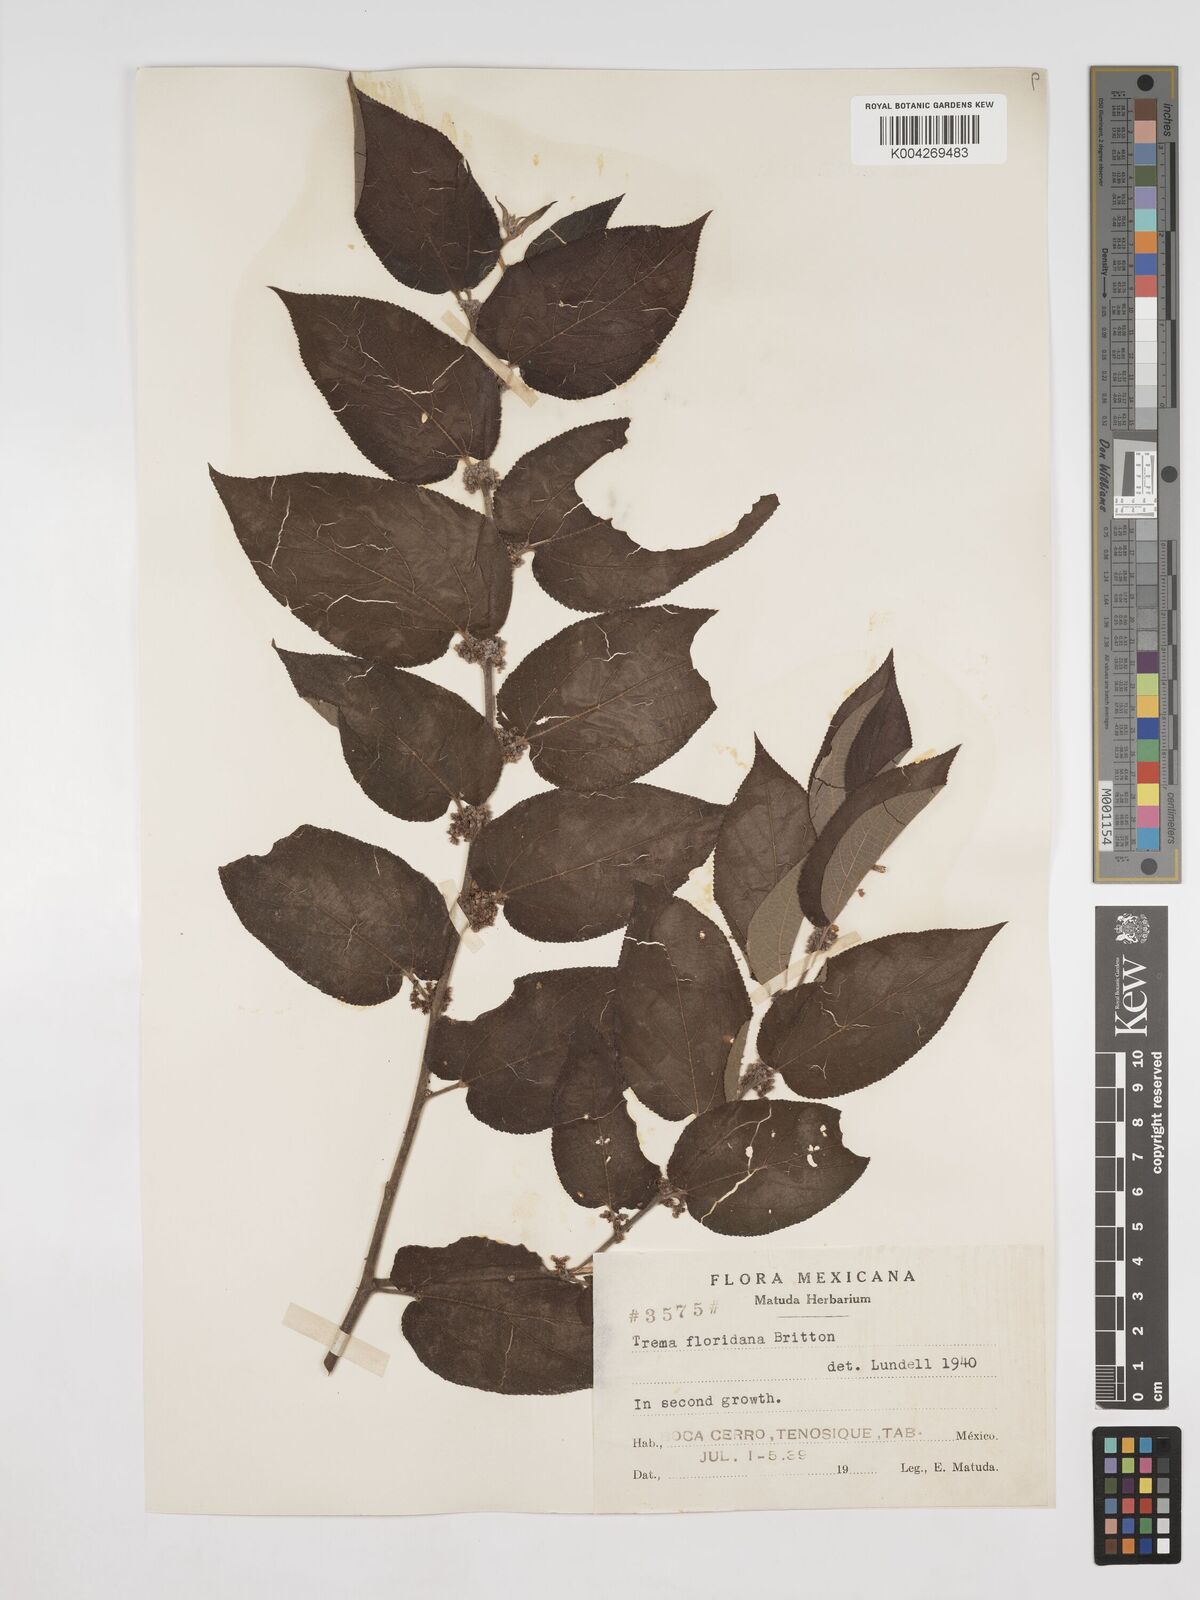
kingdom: Plantae
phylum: Tracheophyta
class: Magnoliopsida
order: Rosales
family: Cannabaceae
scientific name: Cannabaceae
